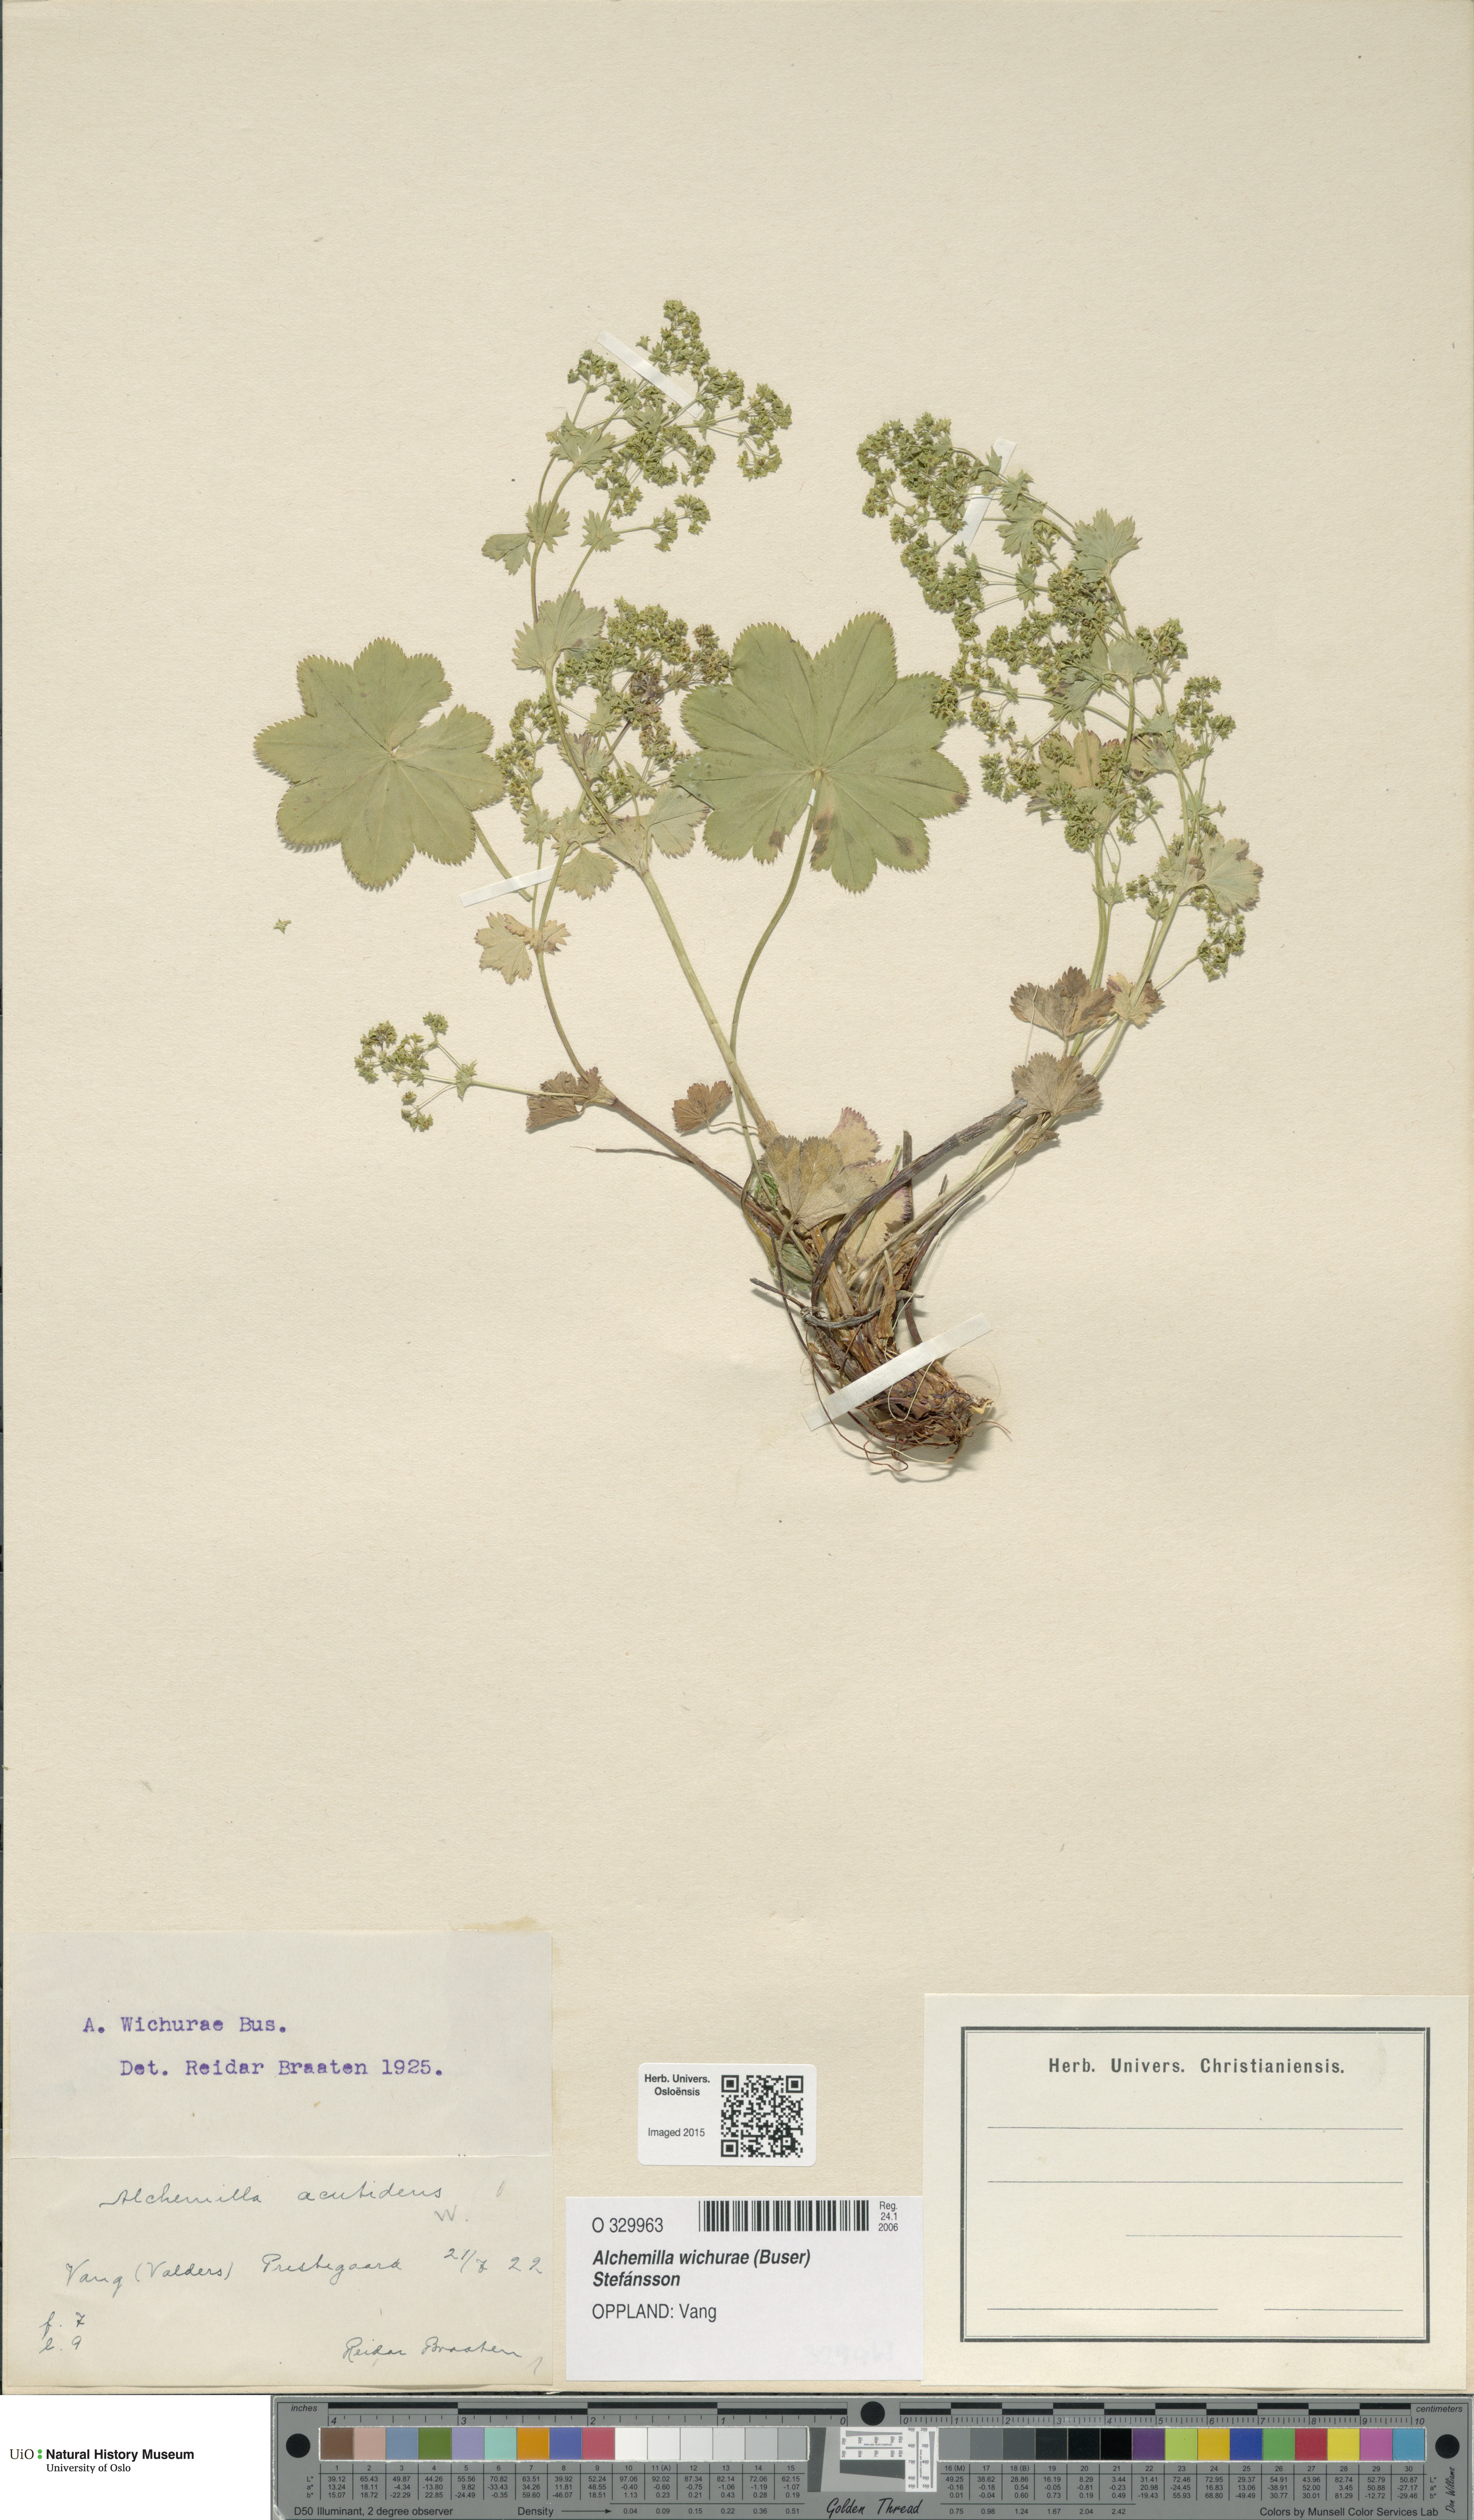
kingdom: Plantae
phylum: Tracheophyta
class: Magnoliopsida
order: Rosales
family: Rosaceae
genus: Alchemilla
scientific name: Alchemilla wichurae
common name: Rock lady's mantle
